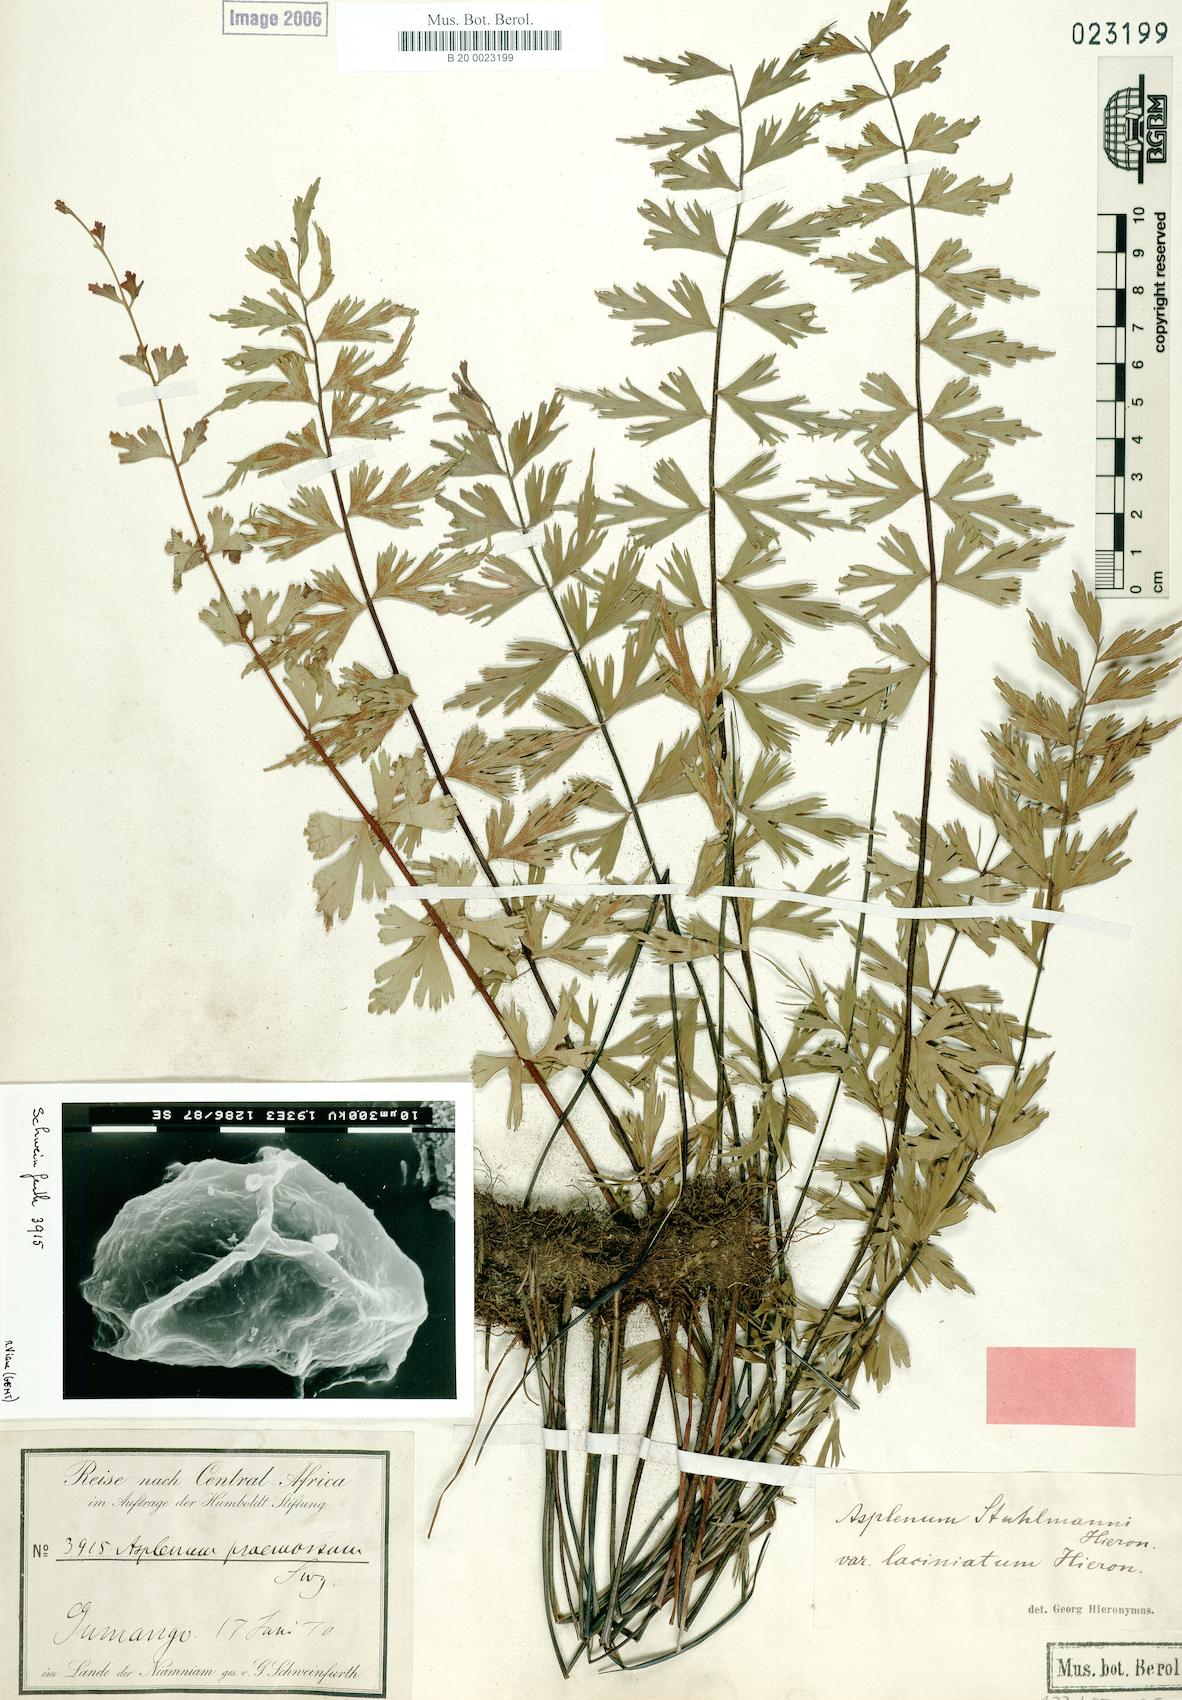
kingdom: Plantae
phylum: Tracheophyta
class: Polypodiopsida
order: Polypodiales
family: Aspleniaceae
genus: Asplenium
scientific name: Asplenium stuhlmannii
